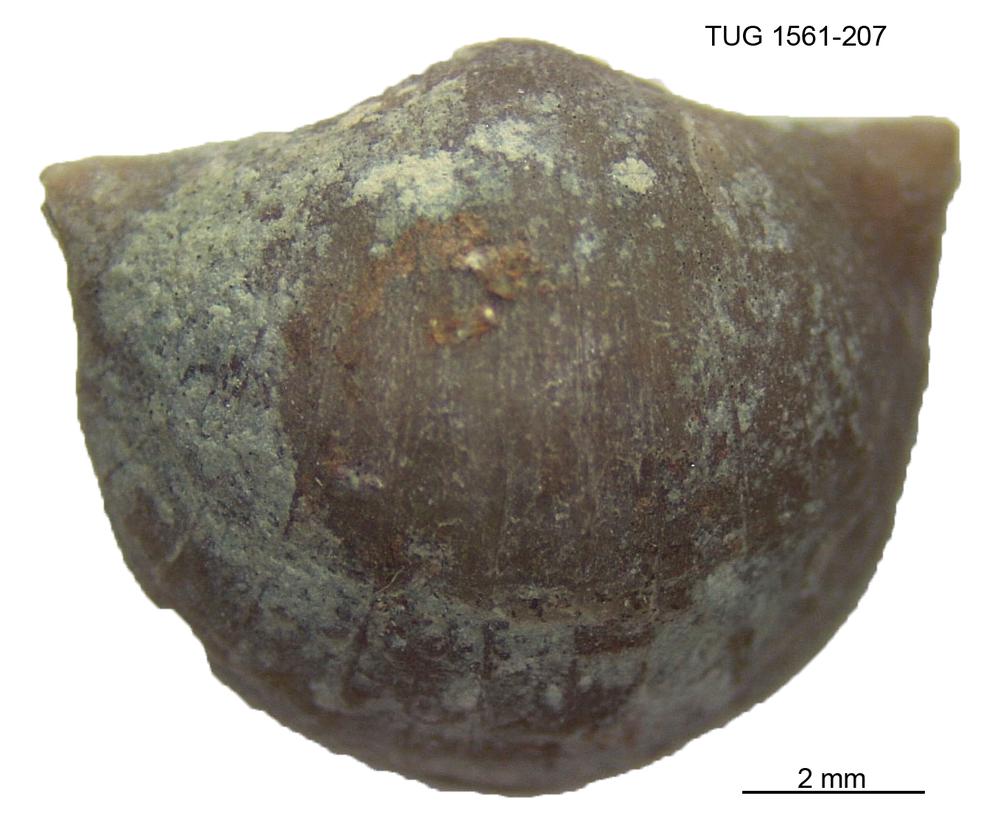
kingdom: Animalia
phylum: Brachiopoda
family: Oldhaminidae
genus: Eoplectodonta
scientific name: Eoplectodonta Anomites transversalis
